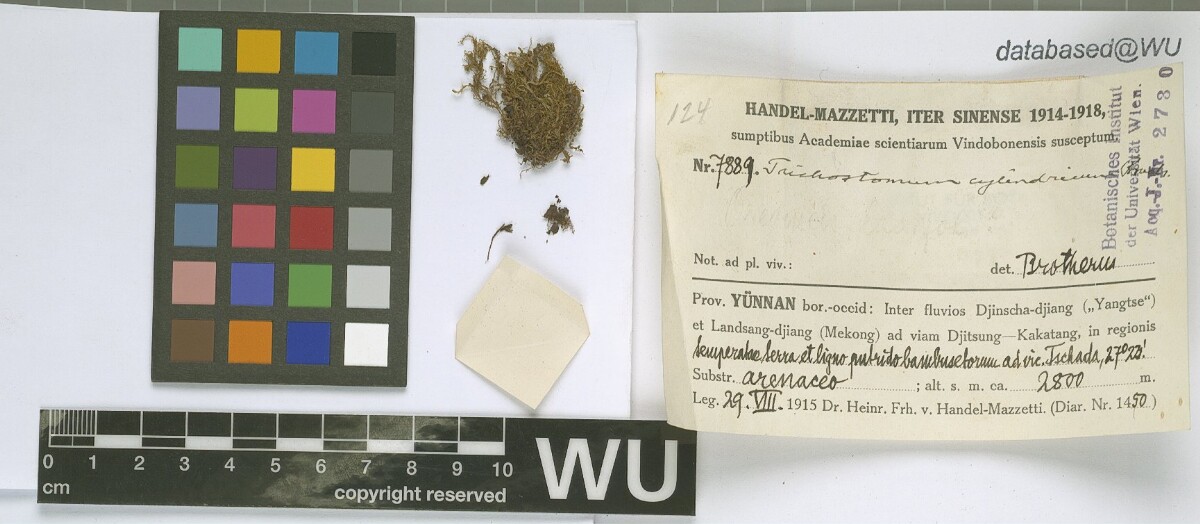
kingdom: Plantae
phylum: Bryophyta
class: Bryopsida
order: Pottiales
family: Pottiaceae
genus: Chionoloma
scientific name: Chionoloma tenuirostre
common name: Narrow-fruited crisp-moss
